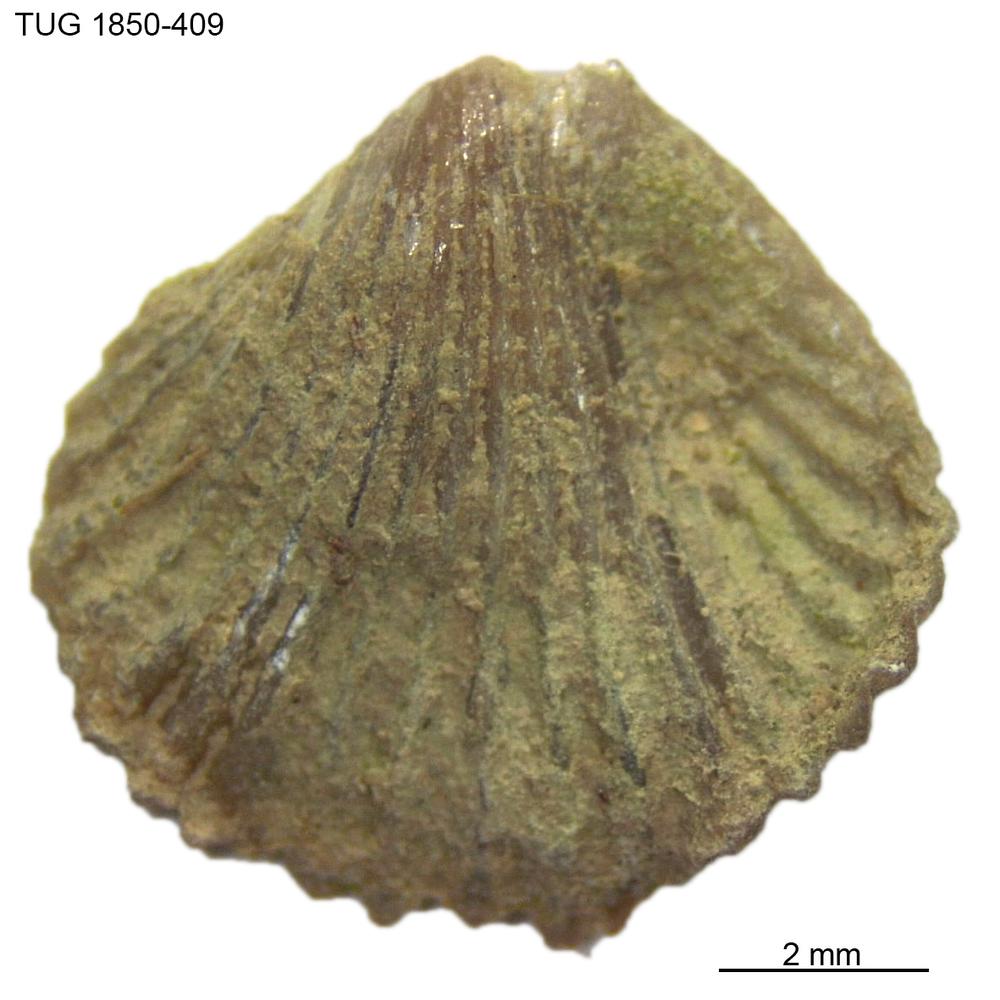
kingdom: Animalia
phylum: Brachiopoda
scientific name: Brachiopoda
